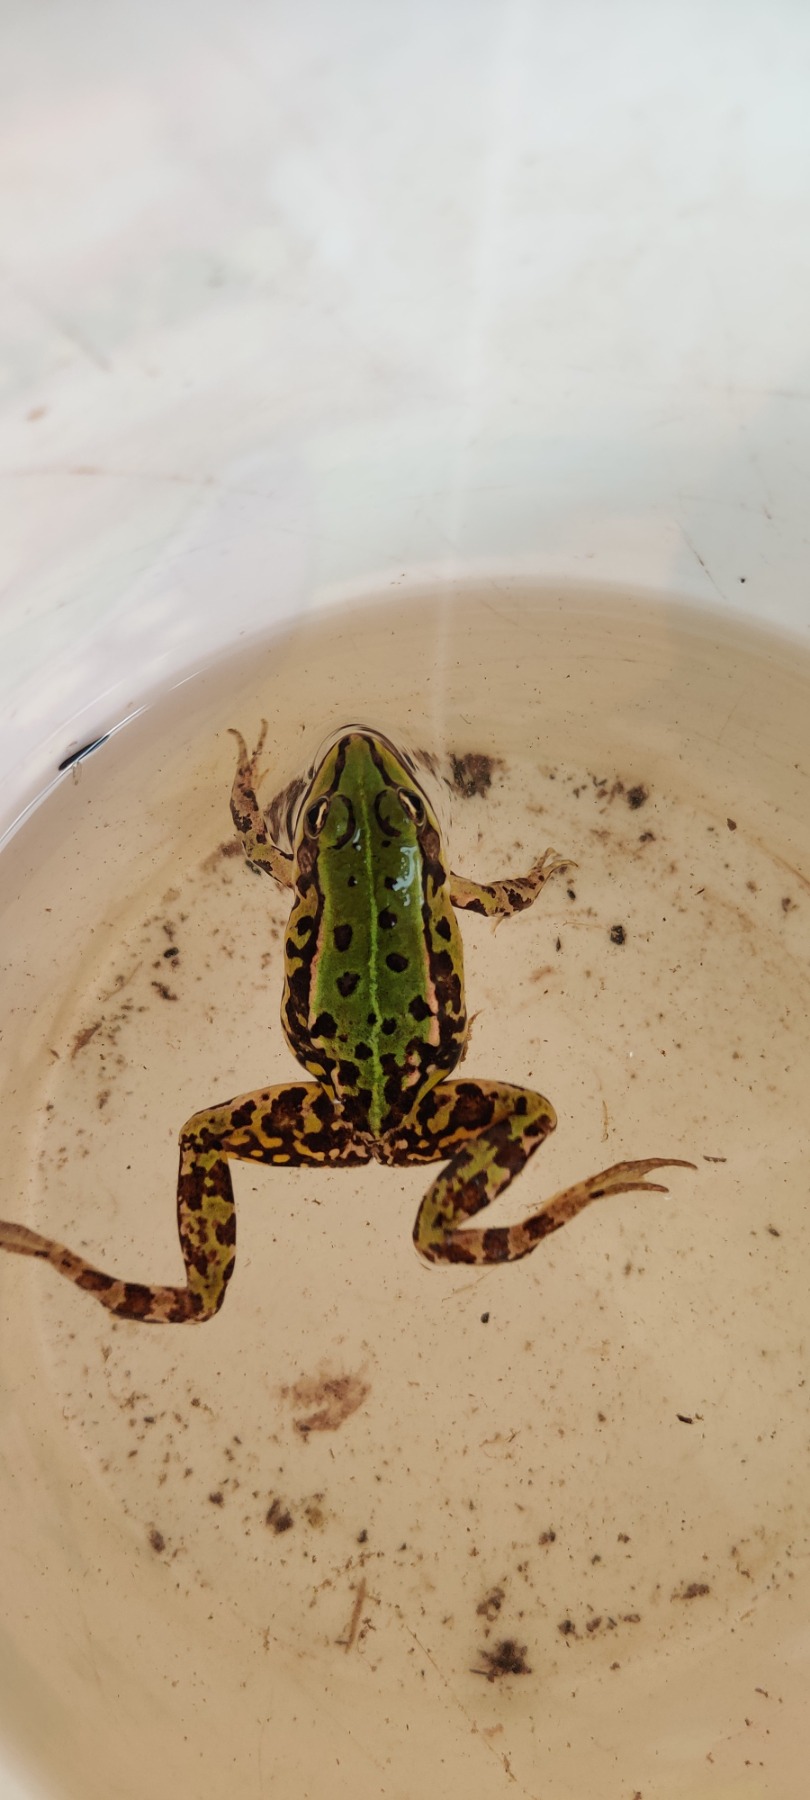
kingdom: Animalia
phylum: Chordata
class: Amphibia
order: Anura
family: Ranidae
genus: Pelophylax
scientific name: Pelophylax lessonae
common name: Grøn frø
